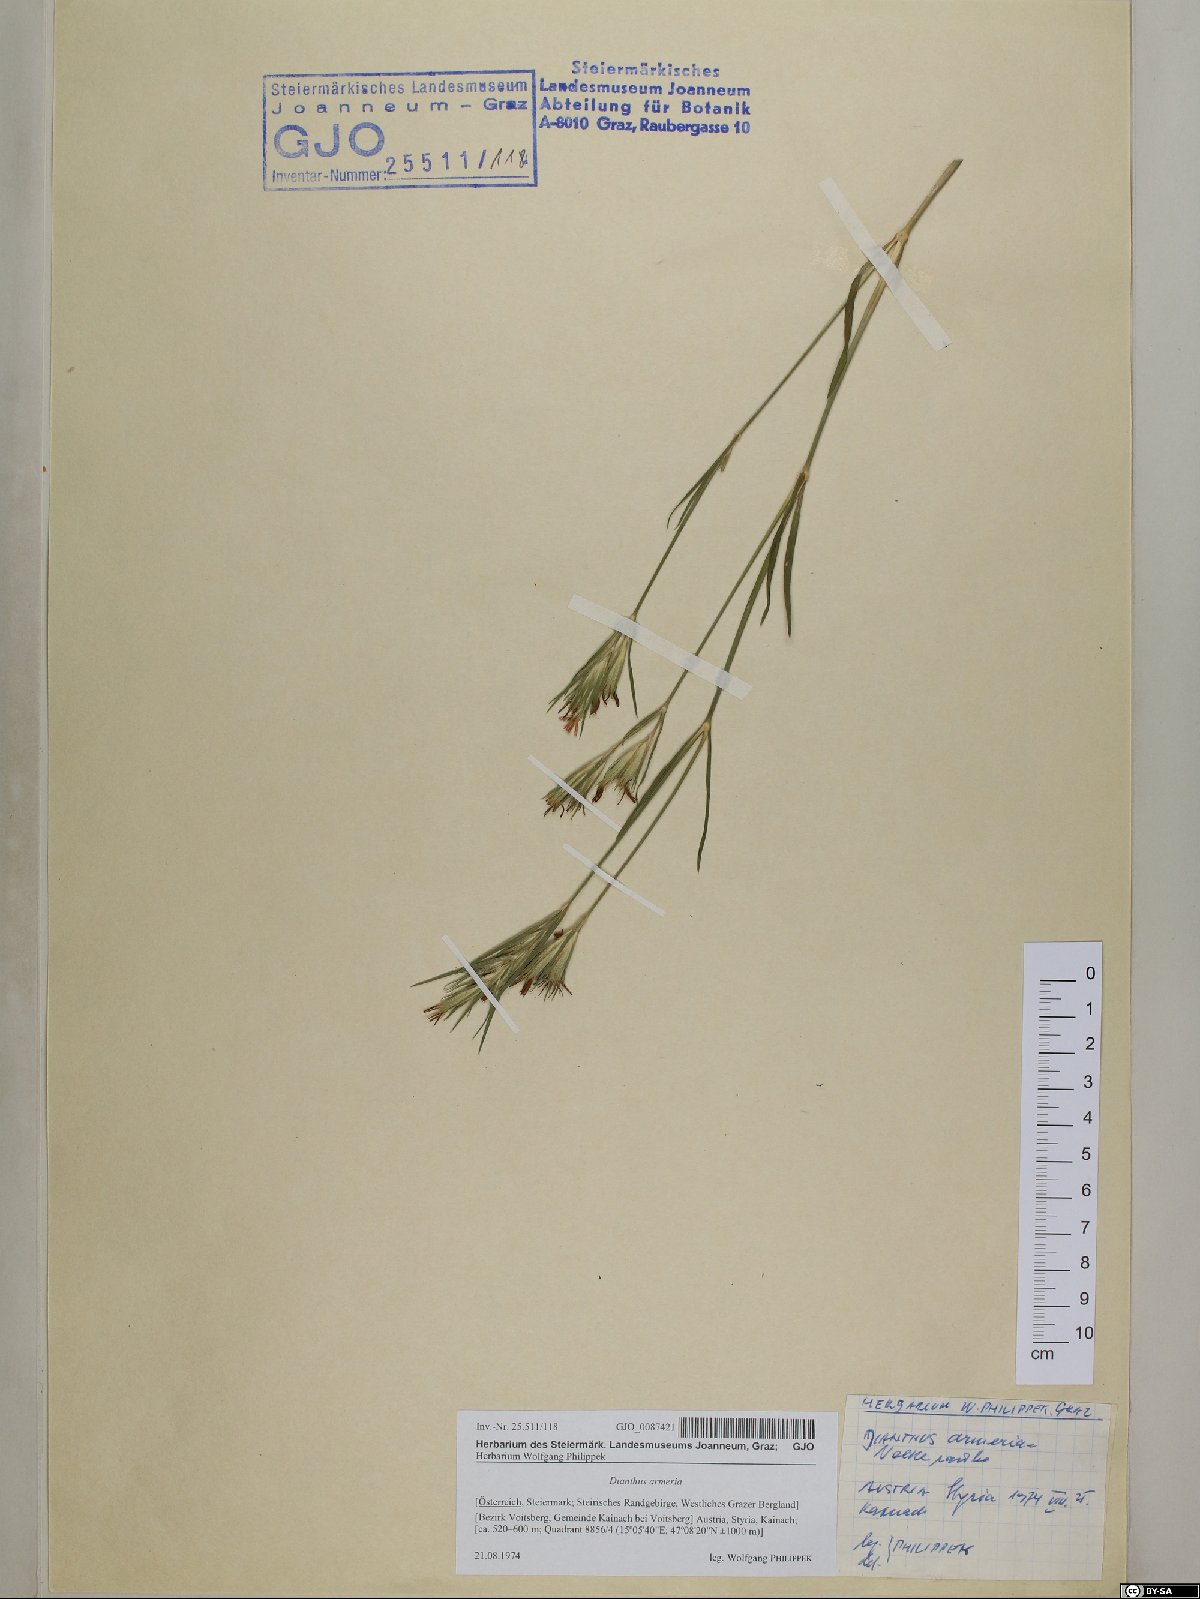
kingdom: Plantae
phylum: Tracheophyta
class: Magnoliopsida
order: Caryophyllales
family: Caryophyllaceae
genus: Dianthus
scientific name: Dianthus armeria
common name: Deptford pink
